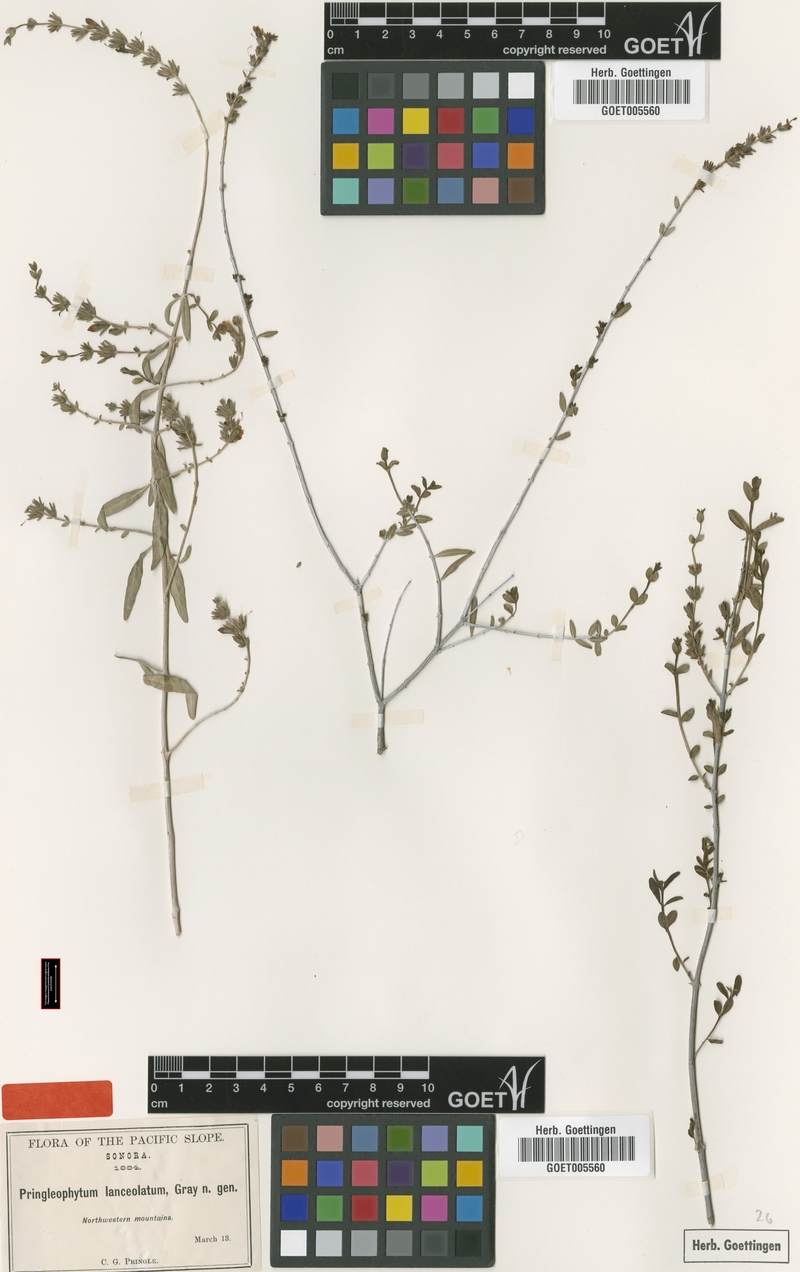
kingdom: Plantae
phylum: Tracheophyta
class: Magnoliopsida
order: Lamiales
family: Acanthaceae
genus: Holographis
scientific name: Holographis virgata
